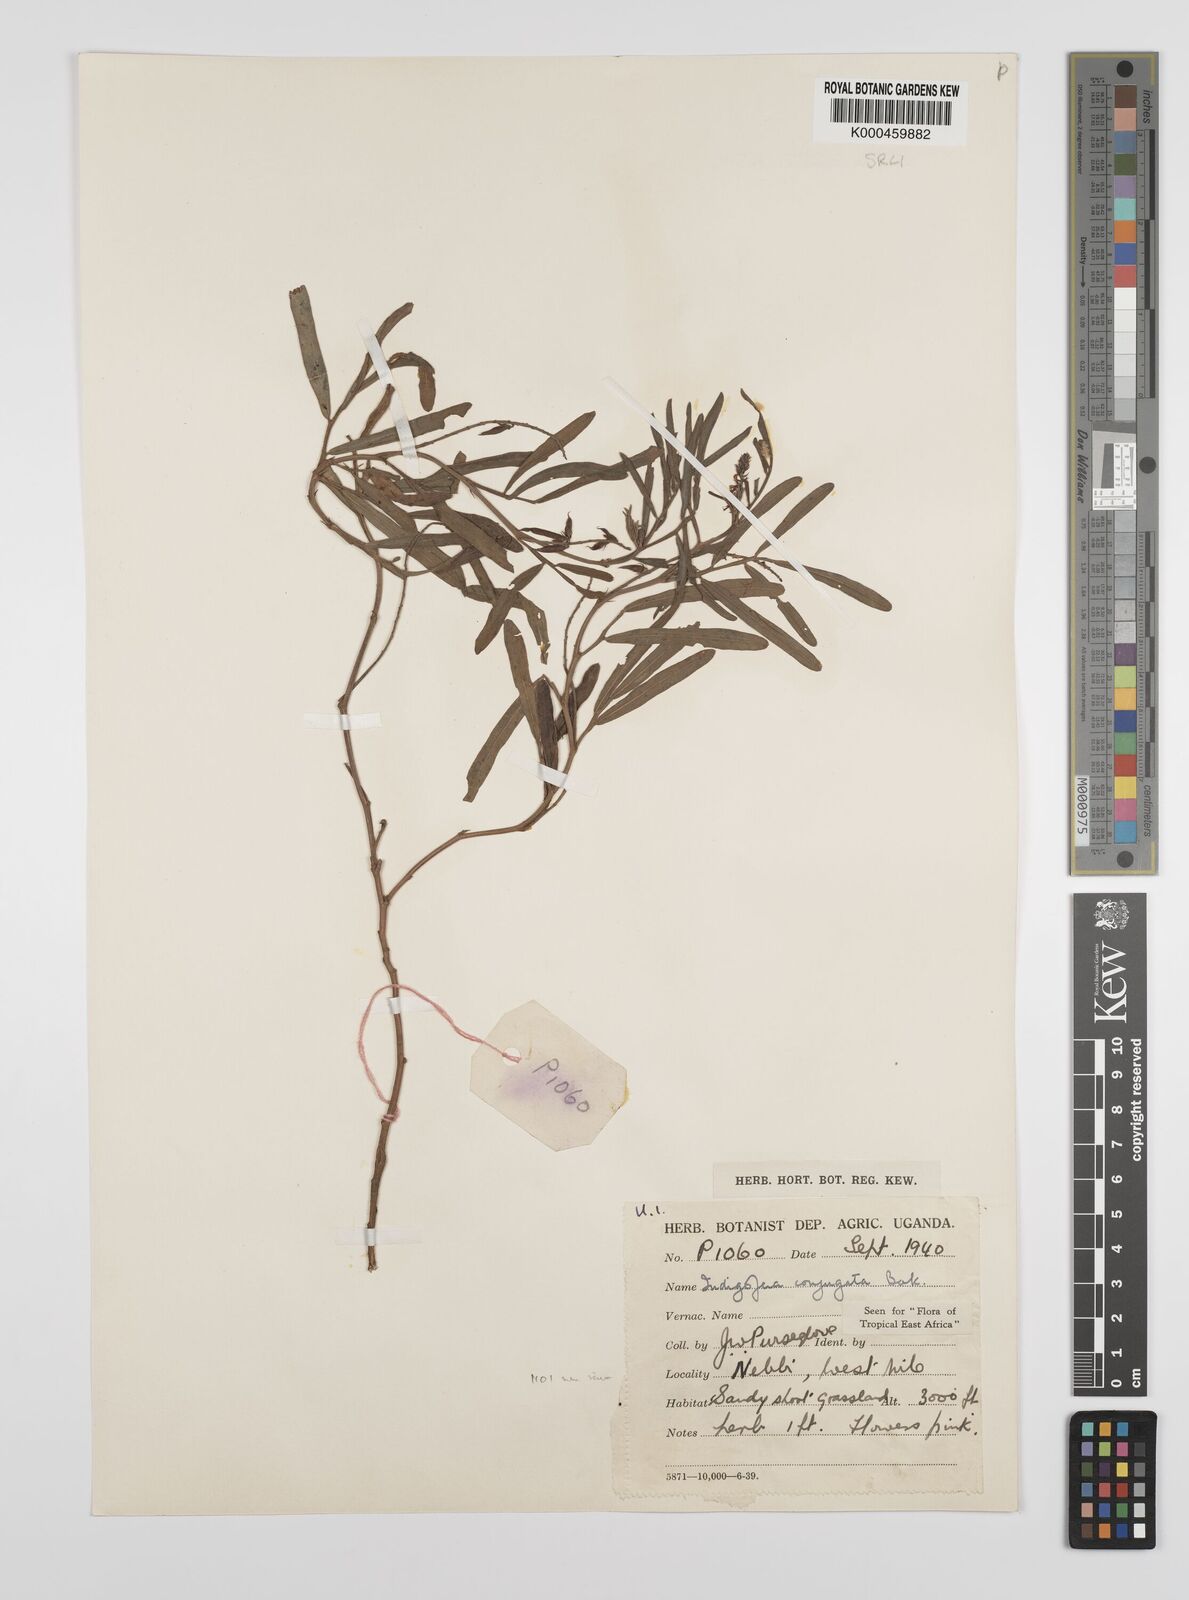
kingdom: Plantae
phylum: Tracheophyta
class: Magnoliopsida
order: Fabales
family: Fabaceae
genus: Indigofera
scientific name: Indigofera conjugata
